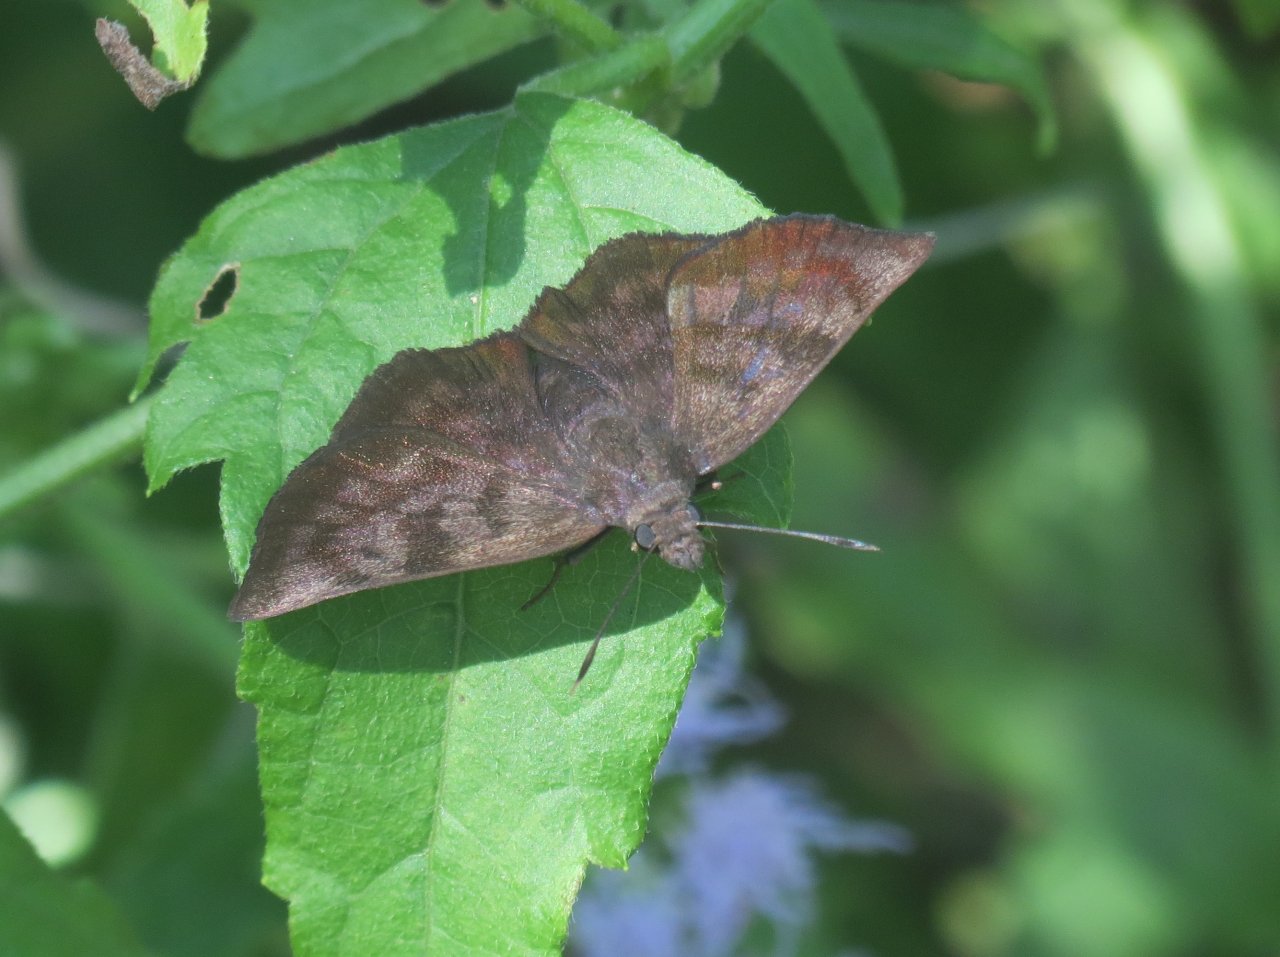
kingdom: Animalia
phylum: Arthropoda
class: Insecta
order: Lepidoptera
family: Hesperiidae
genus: Pellicia
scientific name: Pellicia costimacula
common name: Glazed Pellicia
